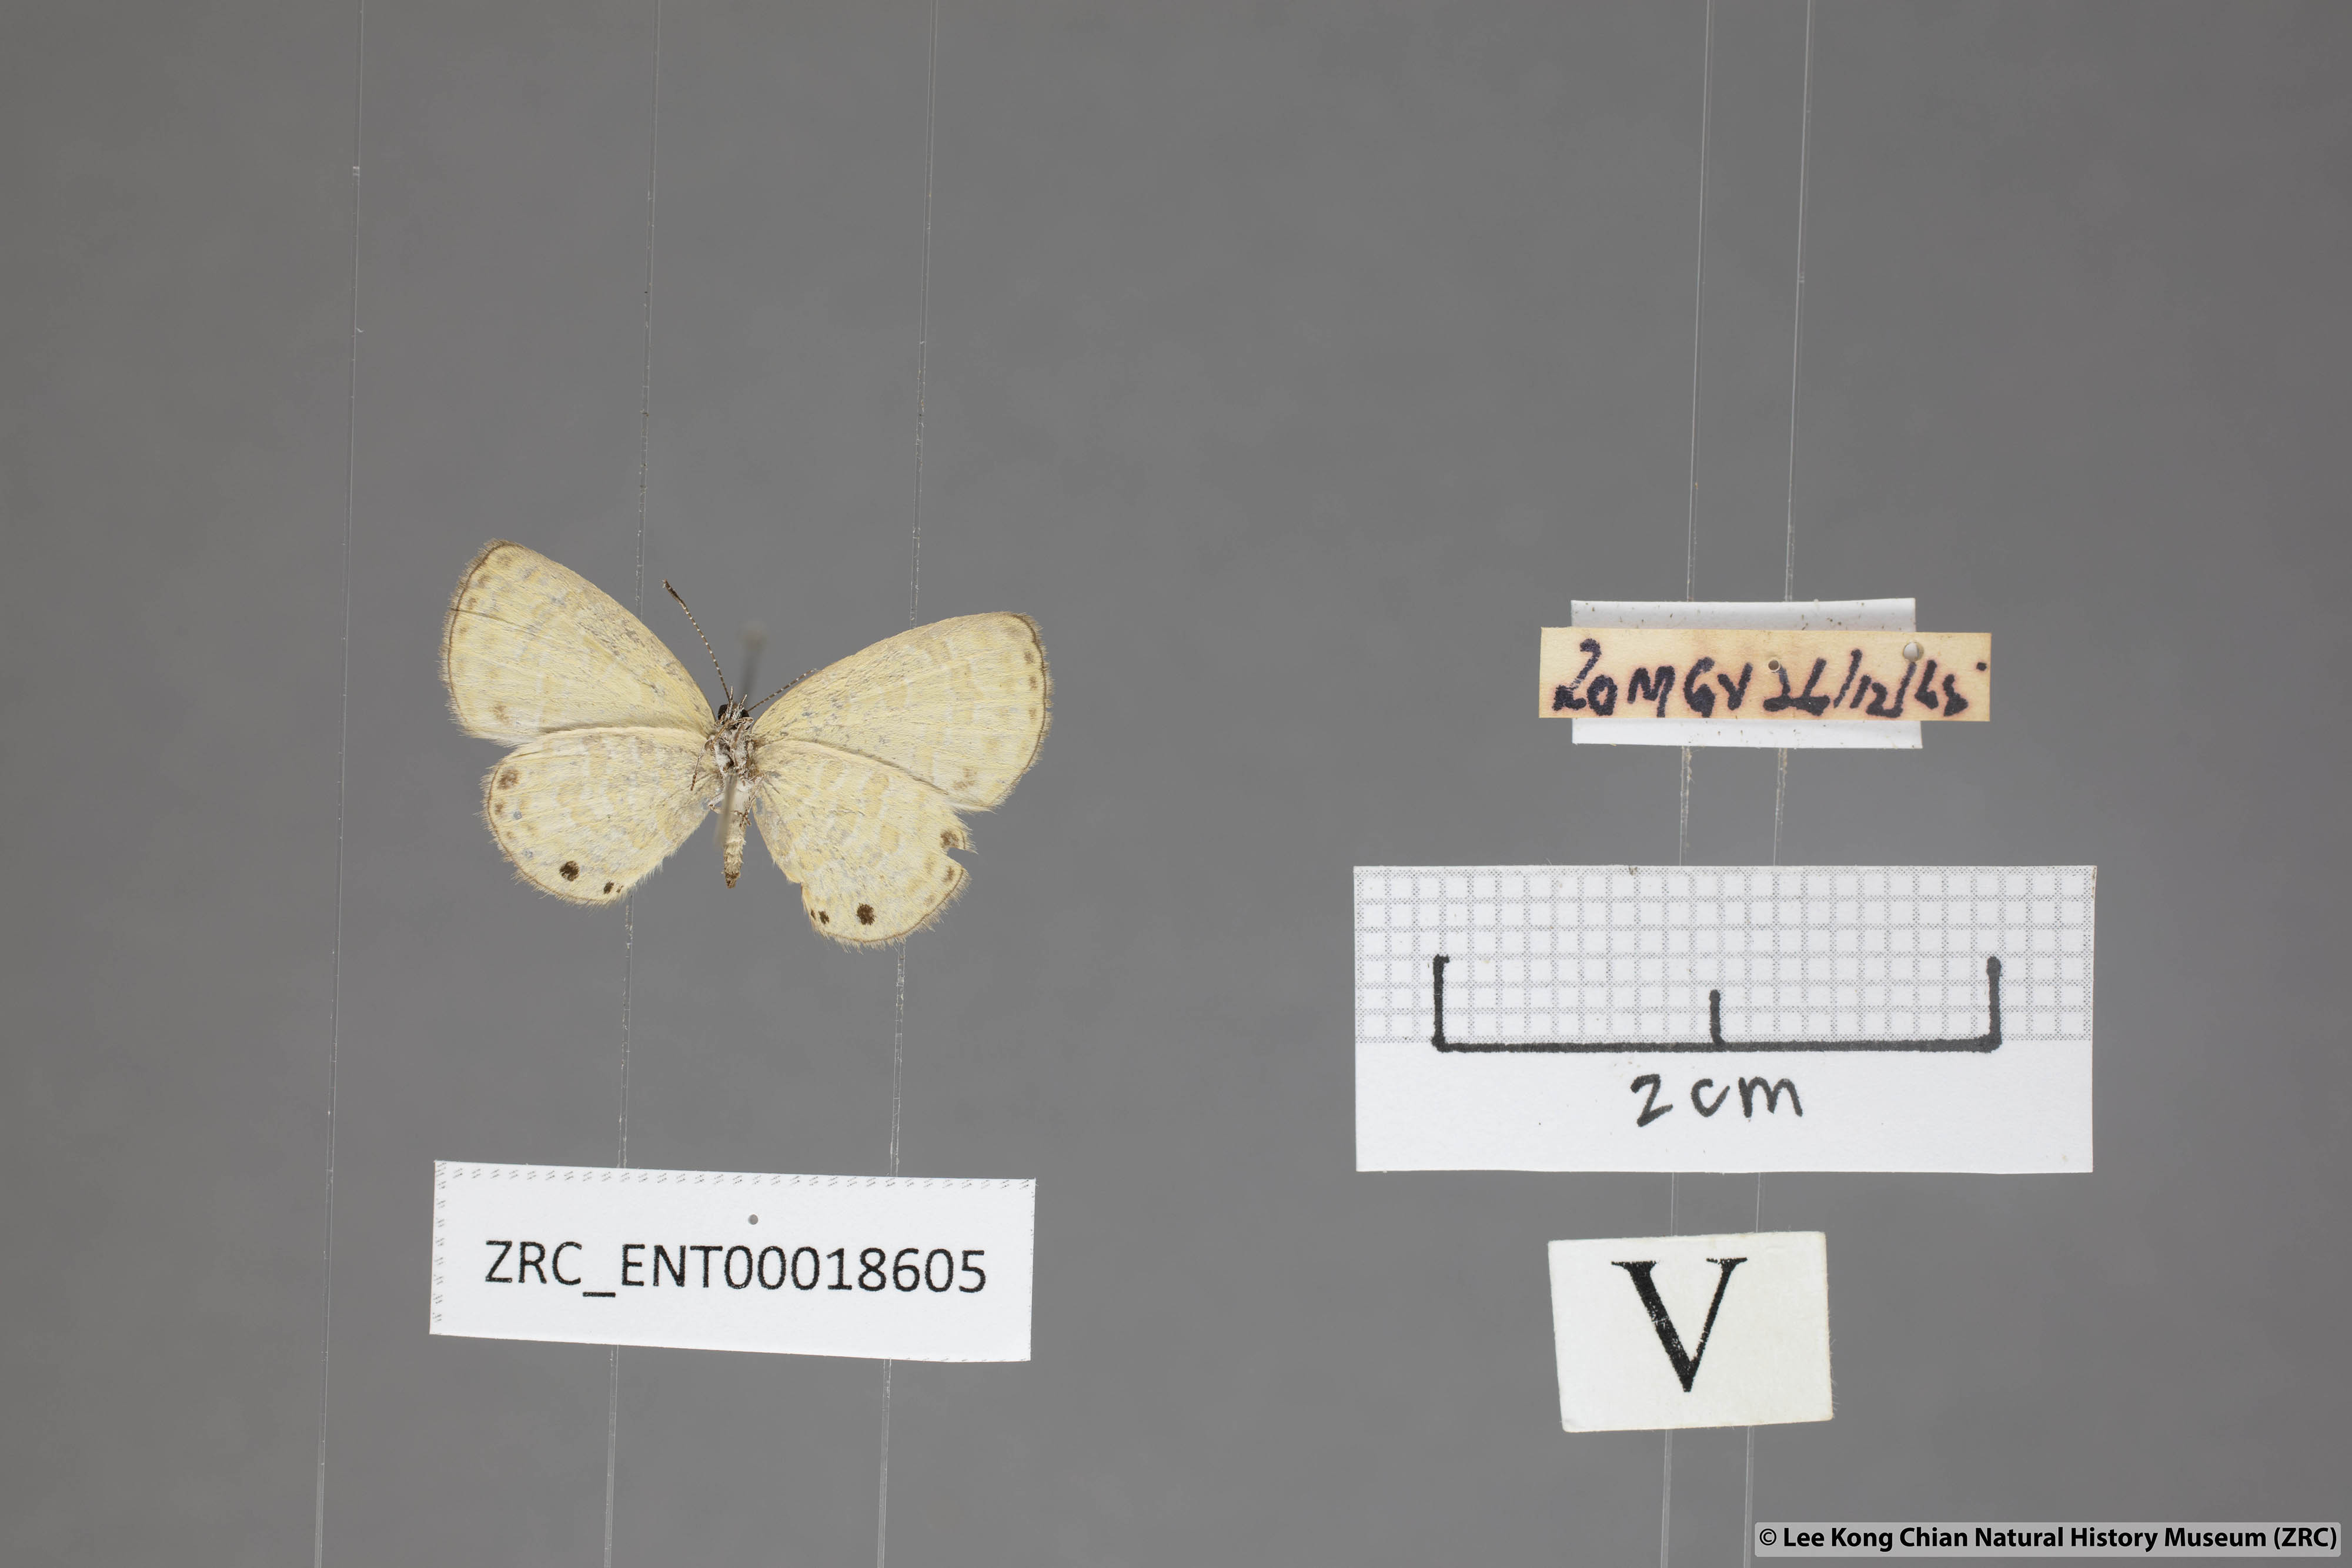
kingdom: Animalia
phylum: Arthropoda
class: Insecta
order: Lepidoptera
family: Lycaenidae
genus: Prosotas
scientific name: Prosotas lutea
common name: Brown lineblue
